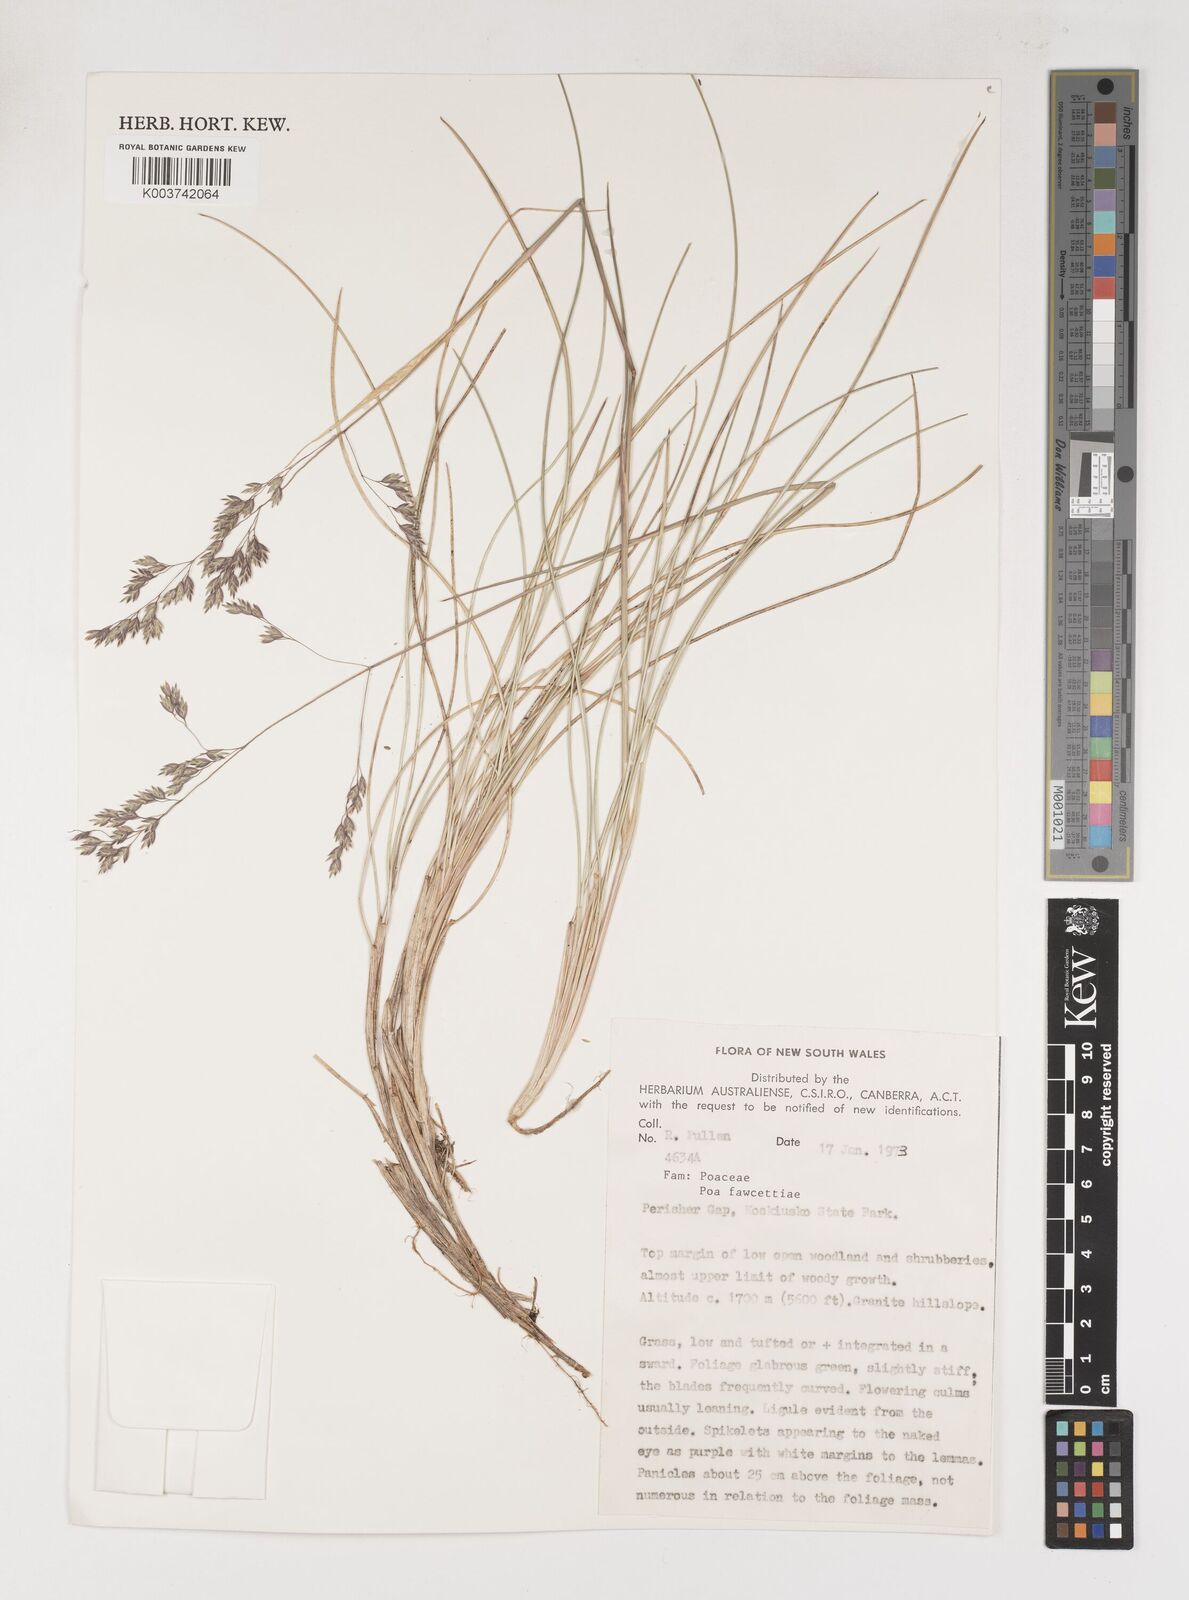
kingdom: Plantae
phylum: Tracheophyta
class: Liliopsida
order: Poales
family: Poaceae
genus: Poa
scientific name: Poa fawcettiae
